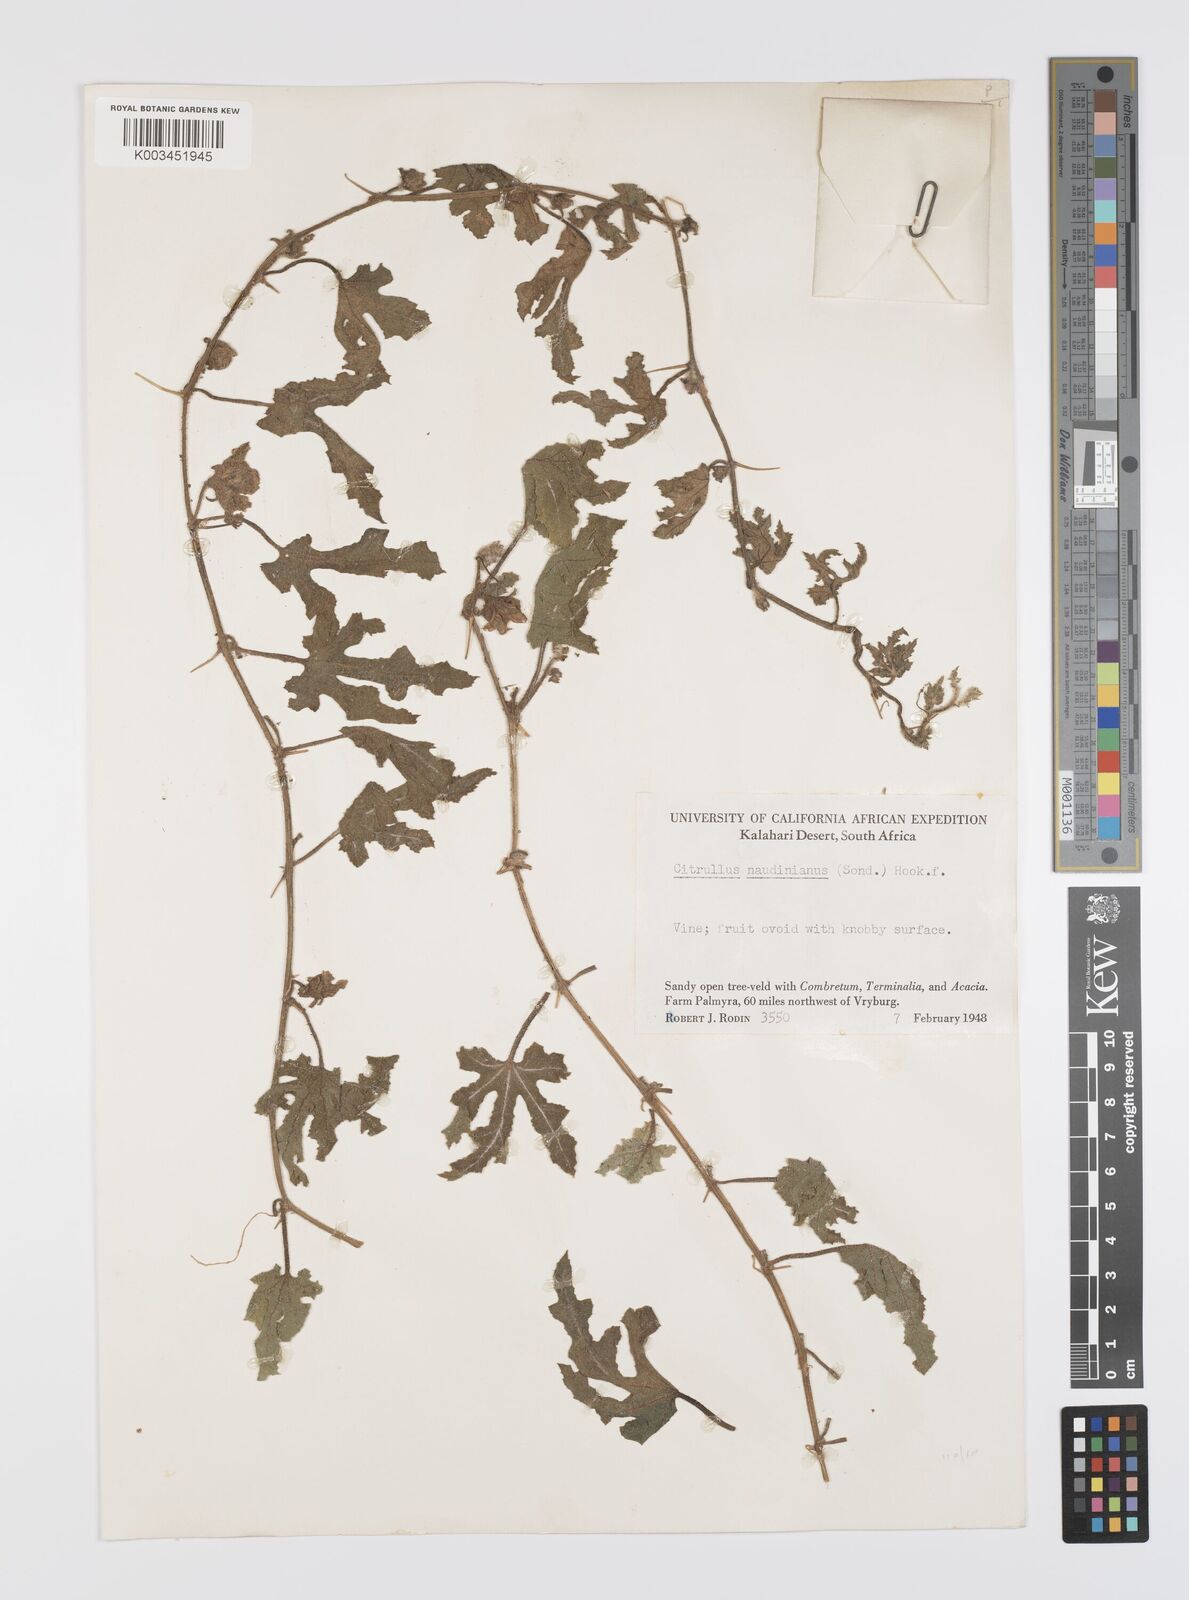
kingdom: Plantae
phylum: Tracheophyta
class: Magnoliopsida
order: Cucurbitales
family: Cucurbitaceae
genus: Citrullus
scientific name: Citrullus naudinianus
